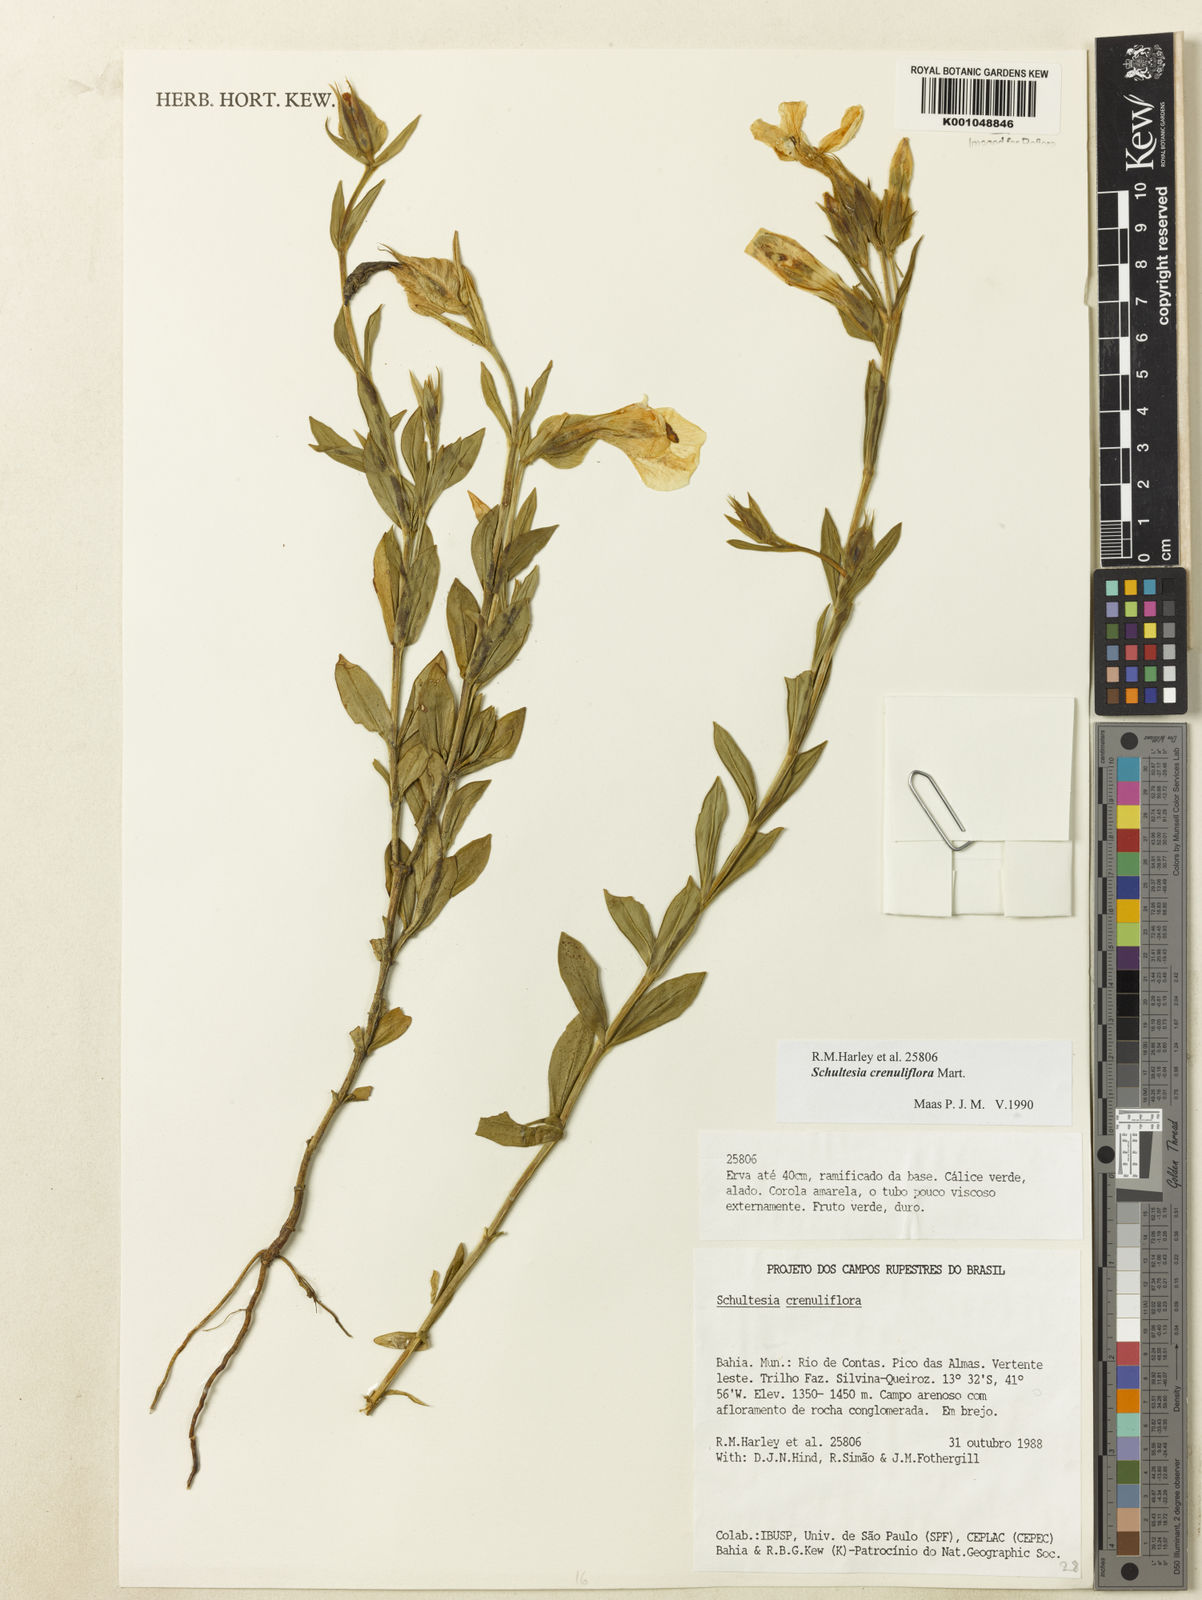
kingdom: Plantae
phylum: Tracheophyta
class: Magnoliopsida
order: Gentianales
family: Gentianaceae
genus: Schultesia
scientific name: Schultesia crenuliflora
